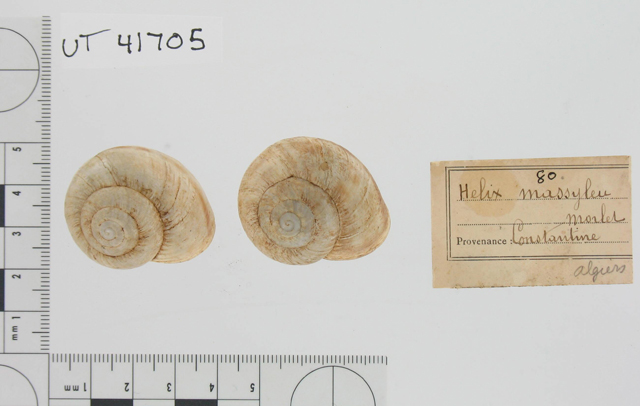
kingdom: Animalia
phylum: Mollusca
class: Gastropoda
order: Stylommatophora
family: Helicidae
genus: Helix
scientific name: Helix massoni
